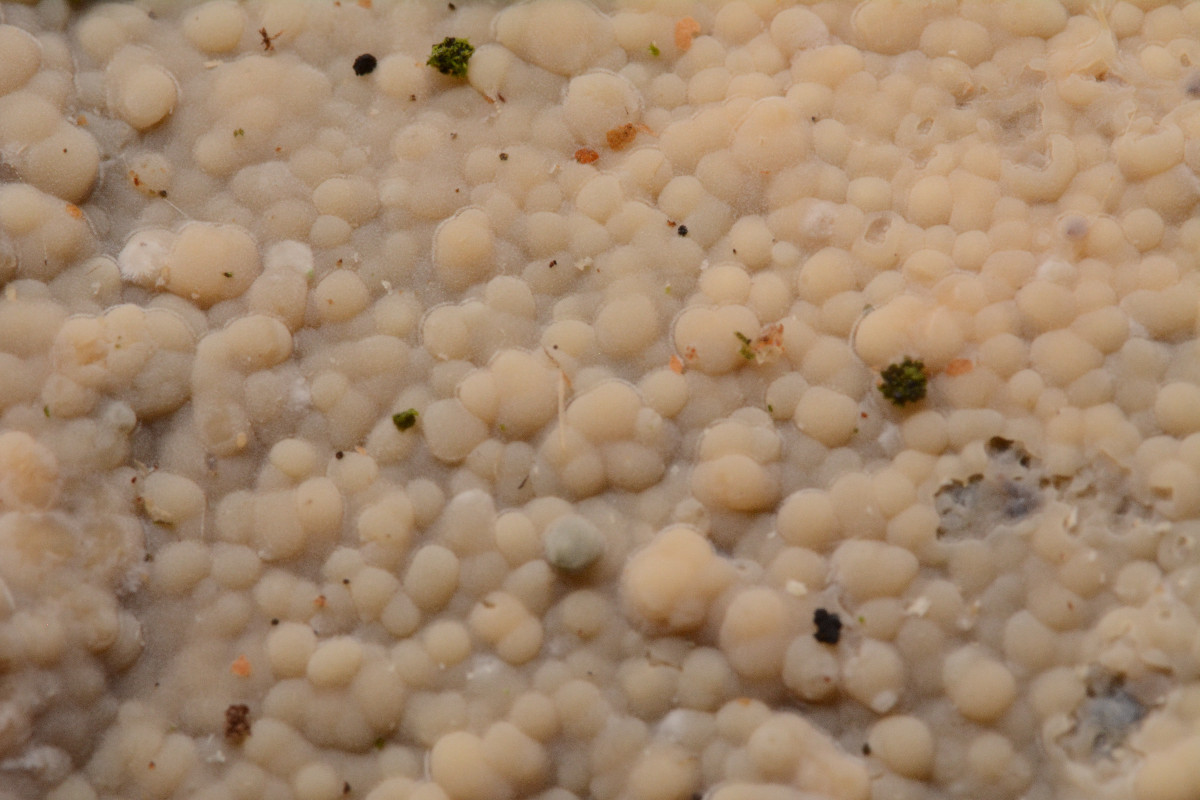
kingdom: Fungi
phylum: Basidiomycota
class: Agaricomycetes
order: Agaricales
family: Radulomycetaceae
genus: Radulomyces
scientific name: Radulomyces confluens
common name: glat naftalinskind
